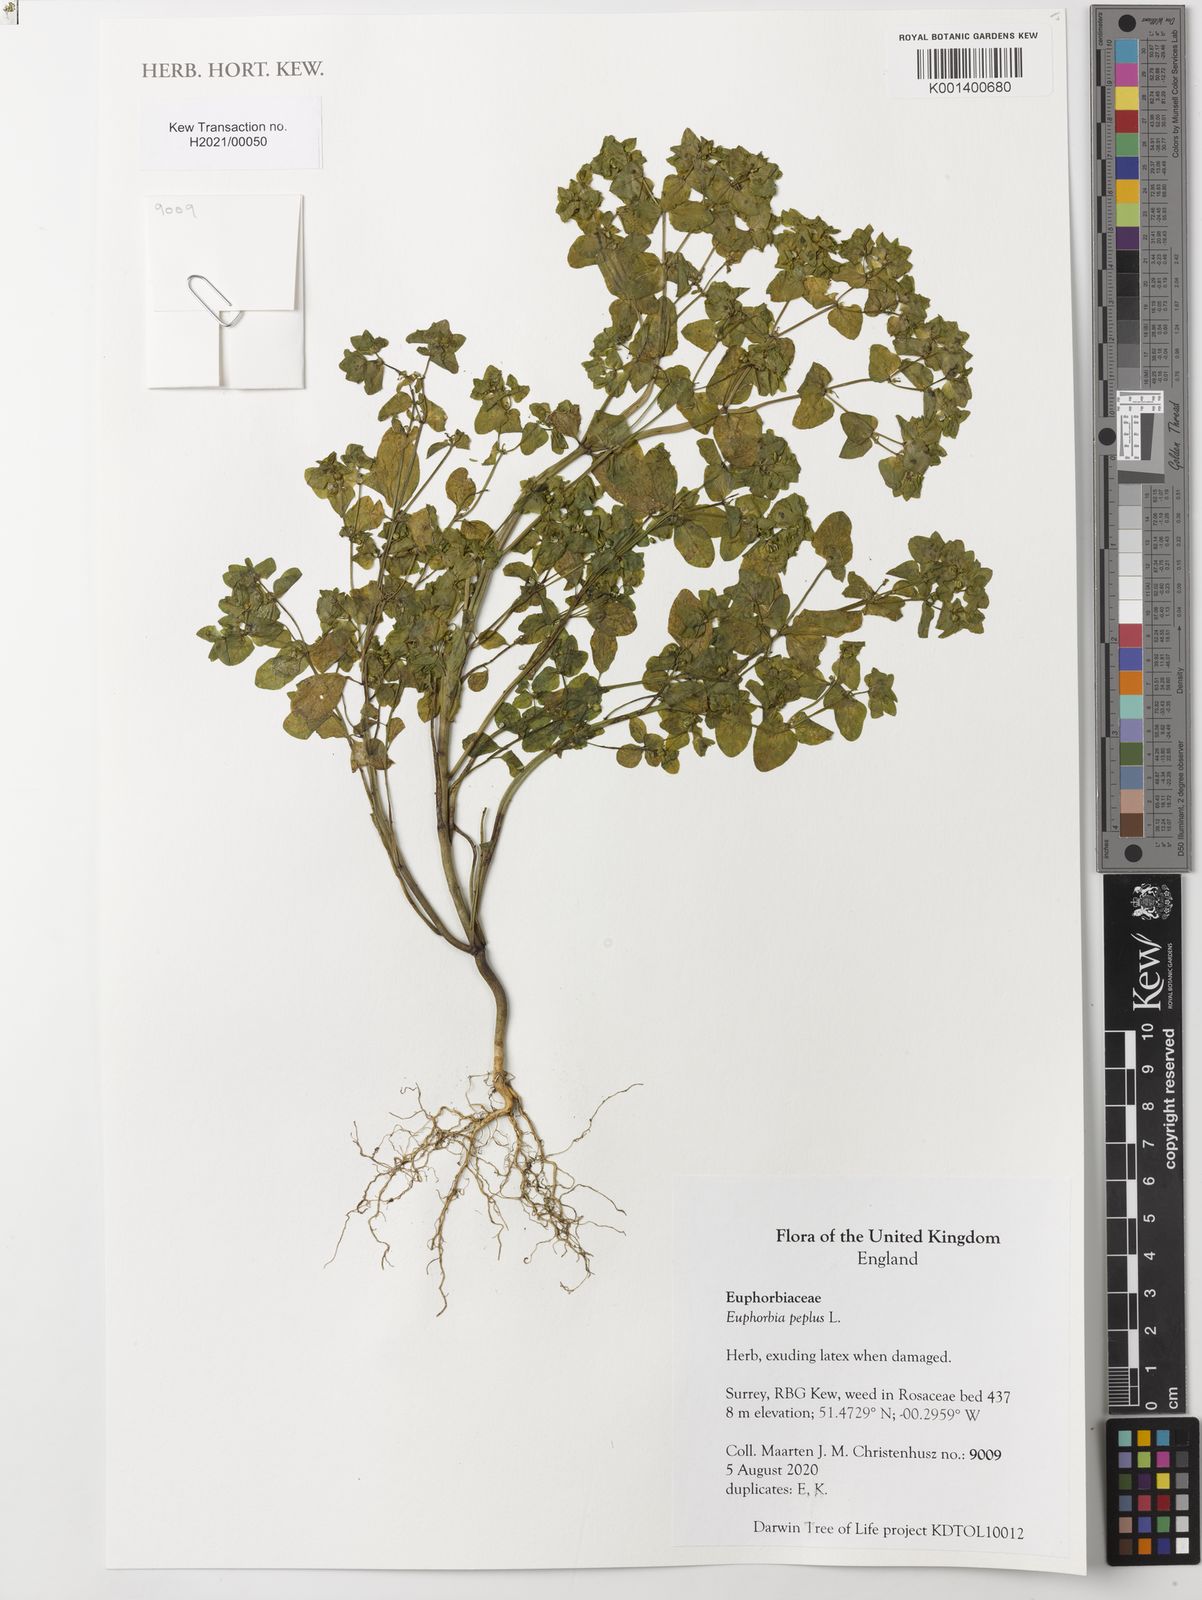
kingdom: Plantae
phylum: Tracheophyta
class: Magnoliopsida
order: Malpighiales
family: Euphorbiaceae
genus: Euphorbia
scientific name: Euphorbia peplus
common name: Petty spurge
